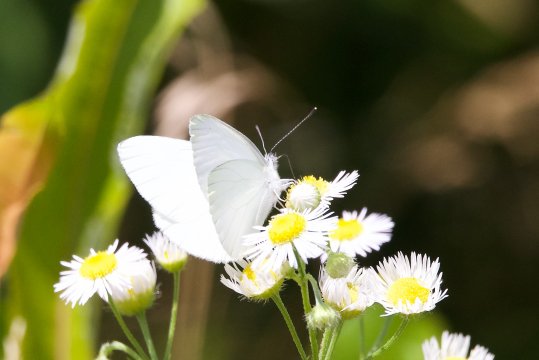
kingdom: Animalia
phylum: Arthropoda
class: Insecta
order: Lepidoptera
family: Pieridae
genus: Pieris
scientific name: Pieris oleracea
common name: Mustard White
